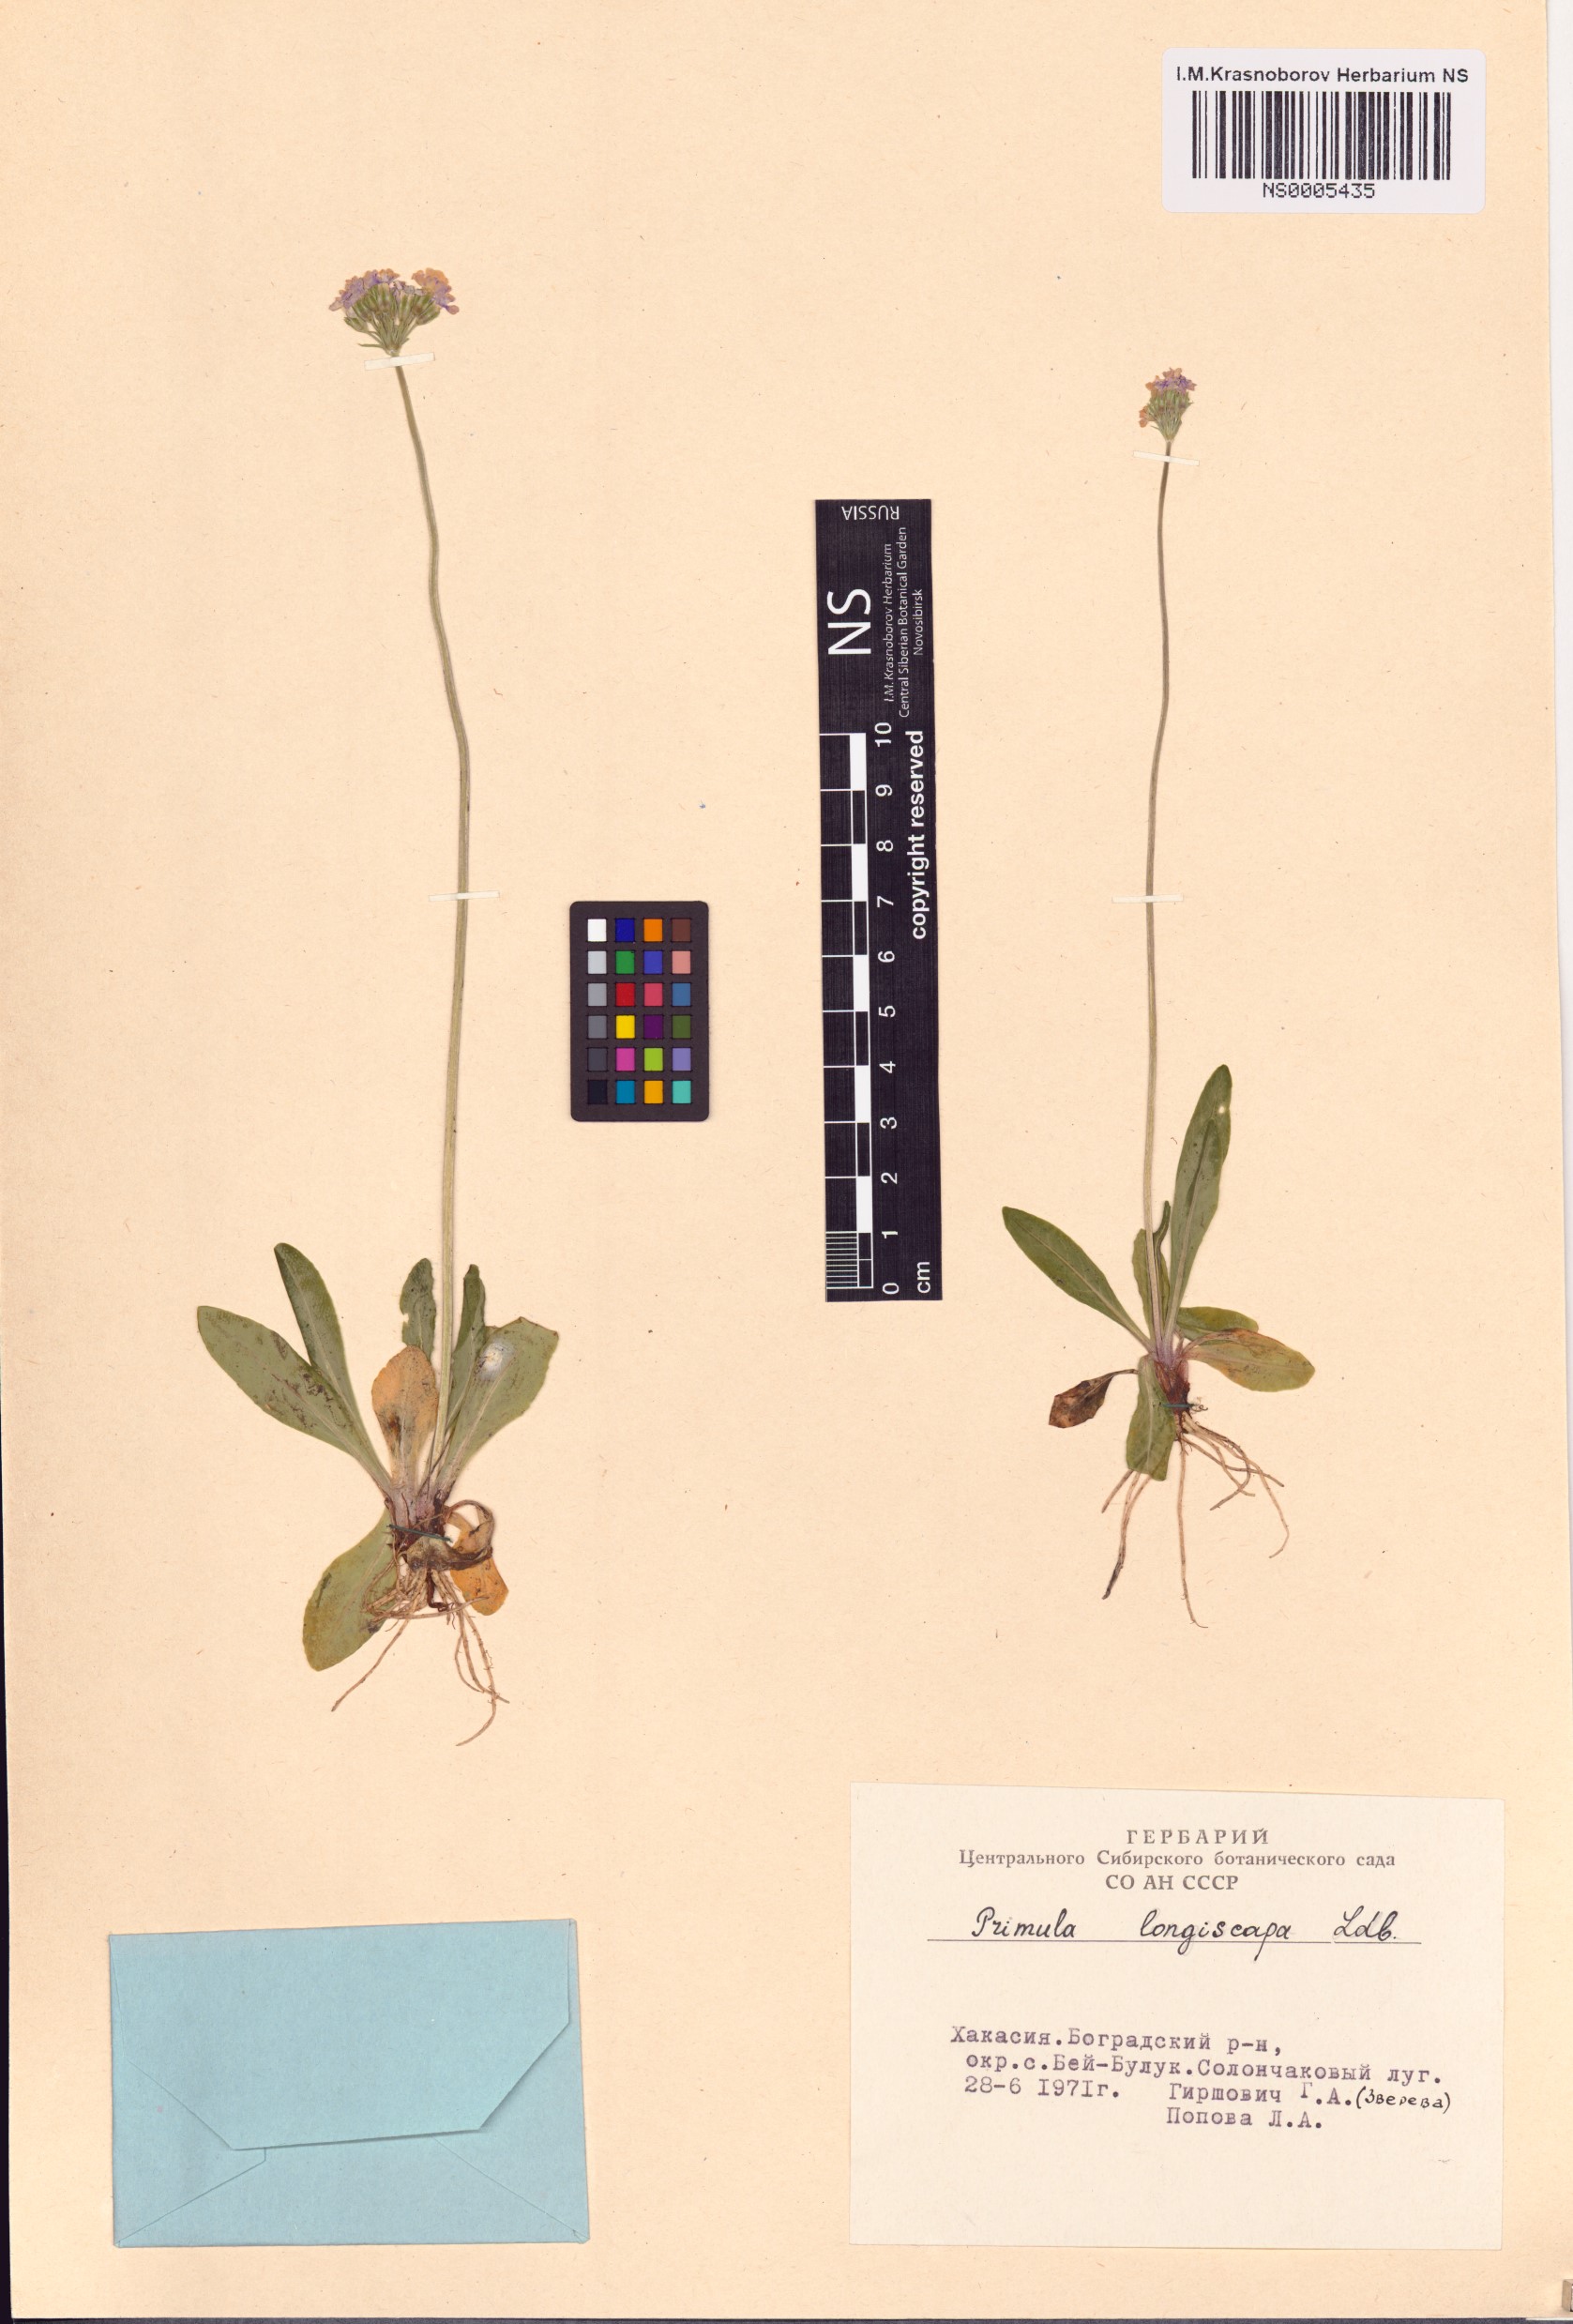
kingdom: Plantae
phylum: Tracheophyta
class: Magnoliopsida
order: Ericales
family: Primulaceae
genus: Primula
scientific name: Primula longiscapa
